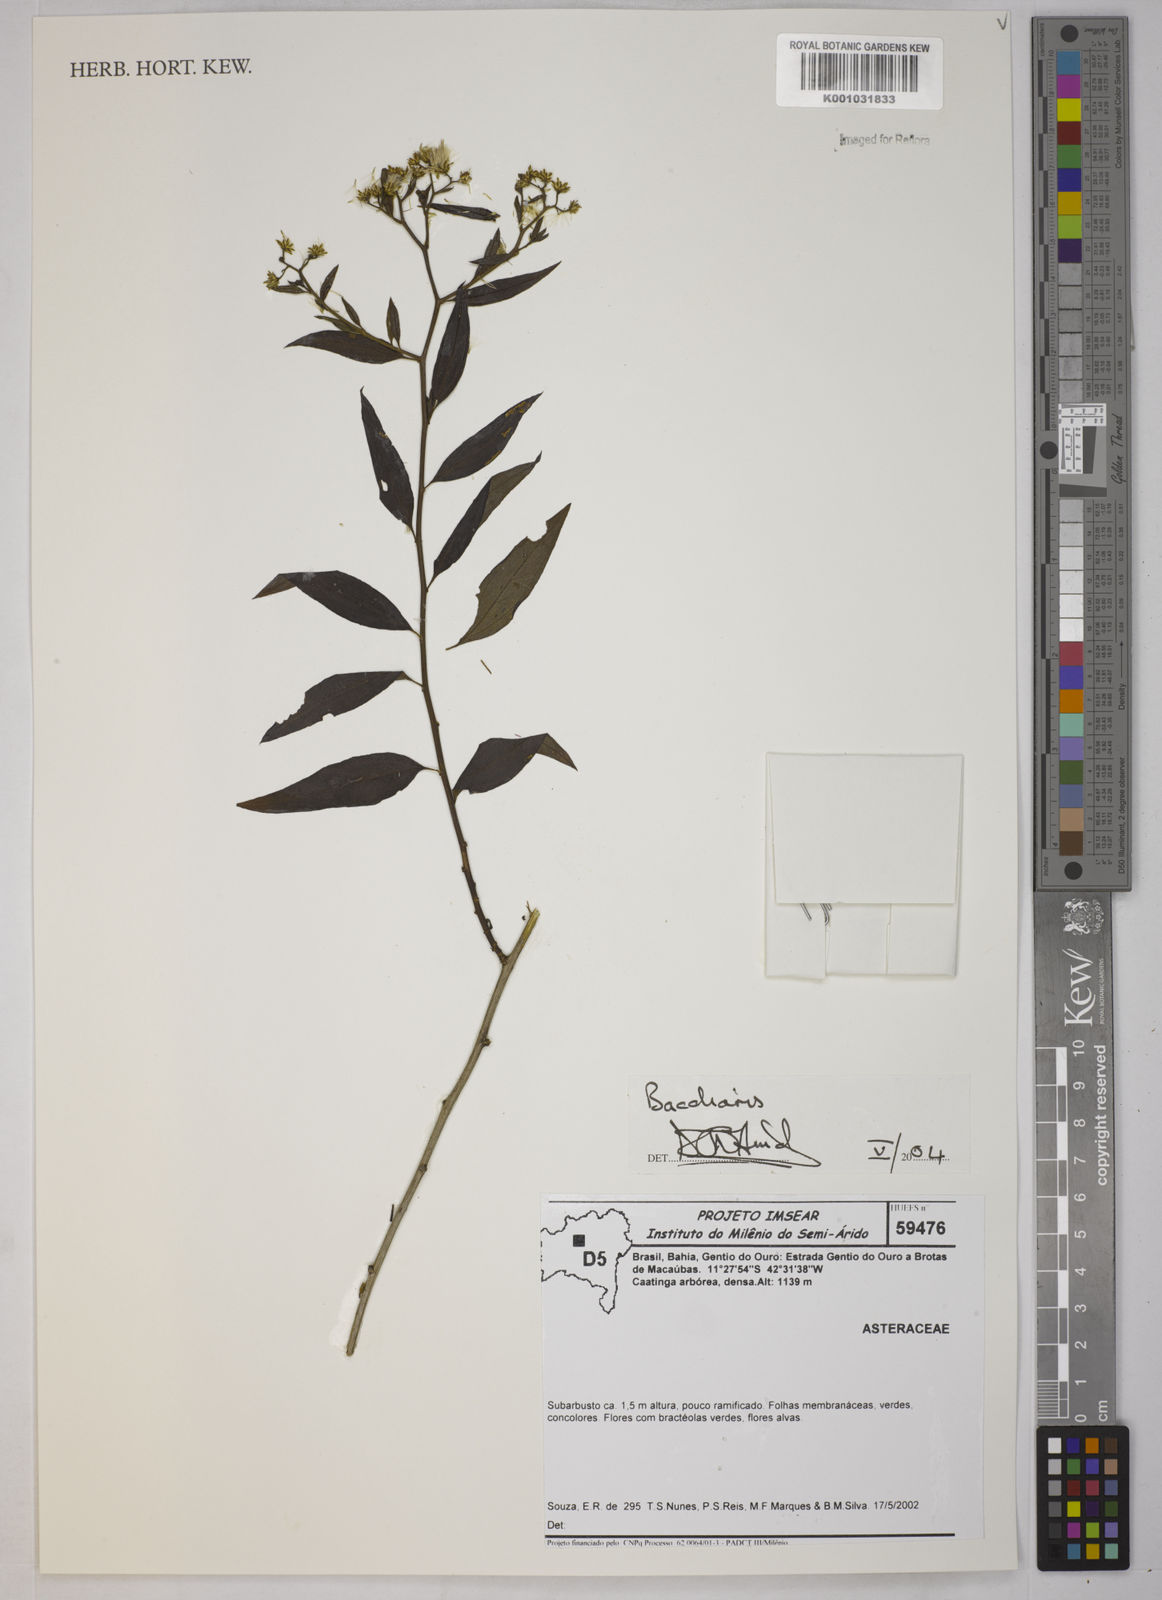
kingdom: Plantae
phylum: Tracheophyta
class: Magnoliopsida
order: Asterales
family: Asteraceae
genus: Baccharis
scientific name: Baccharis
